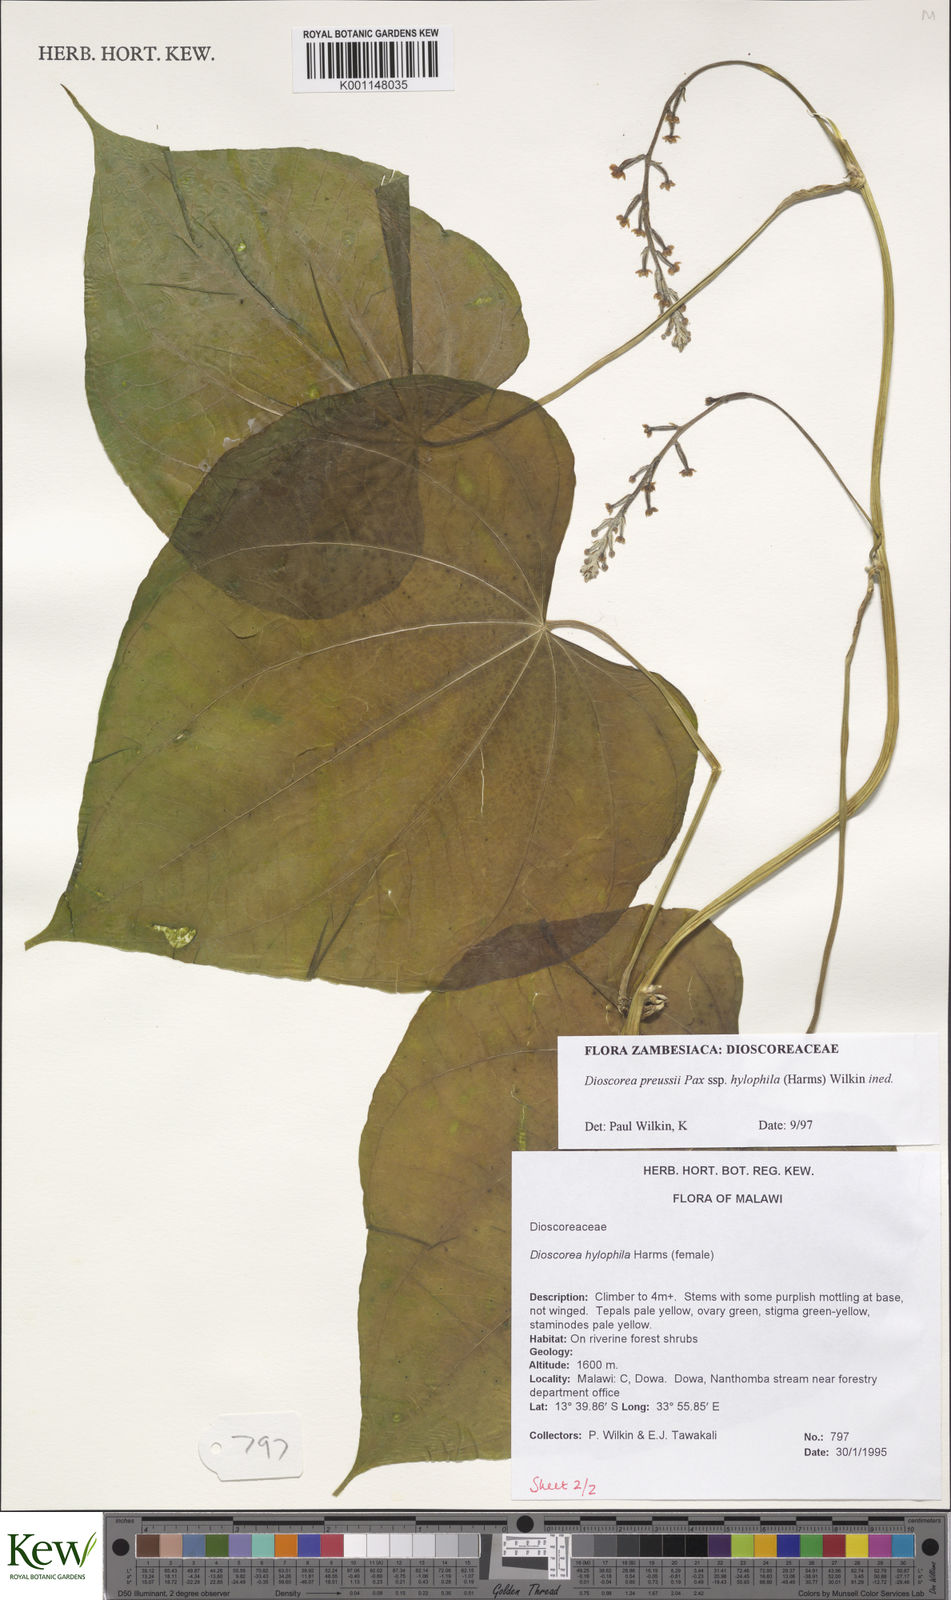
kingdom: Plantae
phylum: Tracheophyta
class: Liliopsida
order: Dioscoreales
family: Dioscoreaceae
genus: Dioscorea
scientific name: Dioscorea
